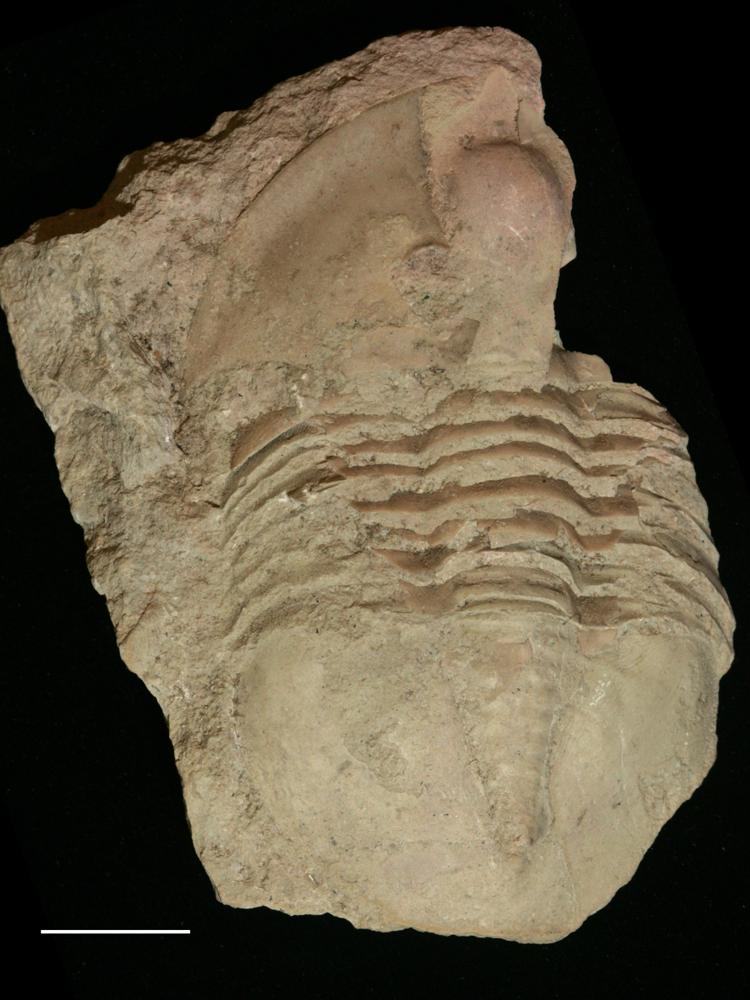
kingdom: Animalia
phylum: Arthropoda
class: Trilobita
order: Asaphida
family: Asaphidae
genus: Ptychopyge
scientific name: Ptychopyge
